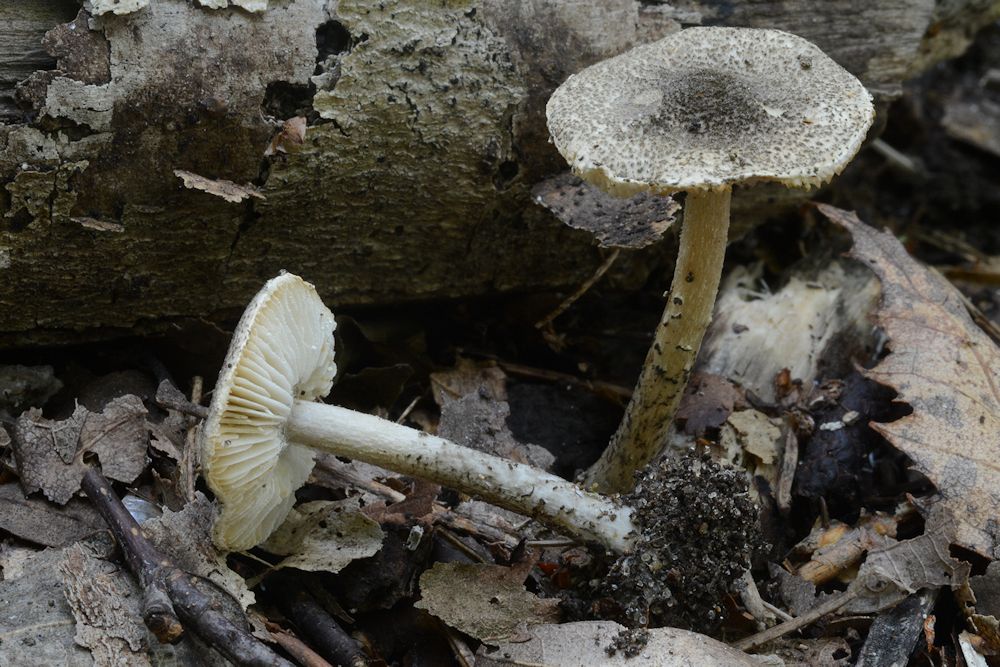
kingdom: Fungi
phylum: Basidiomycota
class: Agaricomycetes
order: Agaricales
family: Agaricaceae
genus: Lepiota
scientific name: Lepiota griseovirens
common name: grågrøn parasolhat
